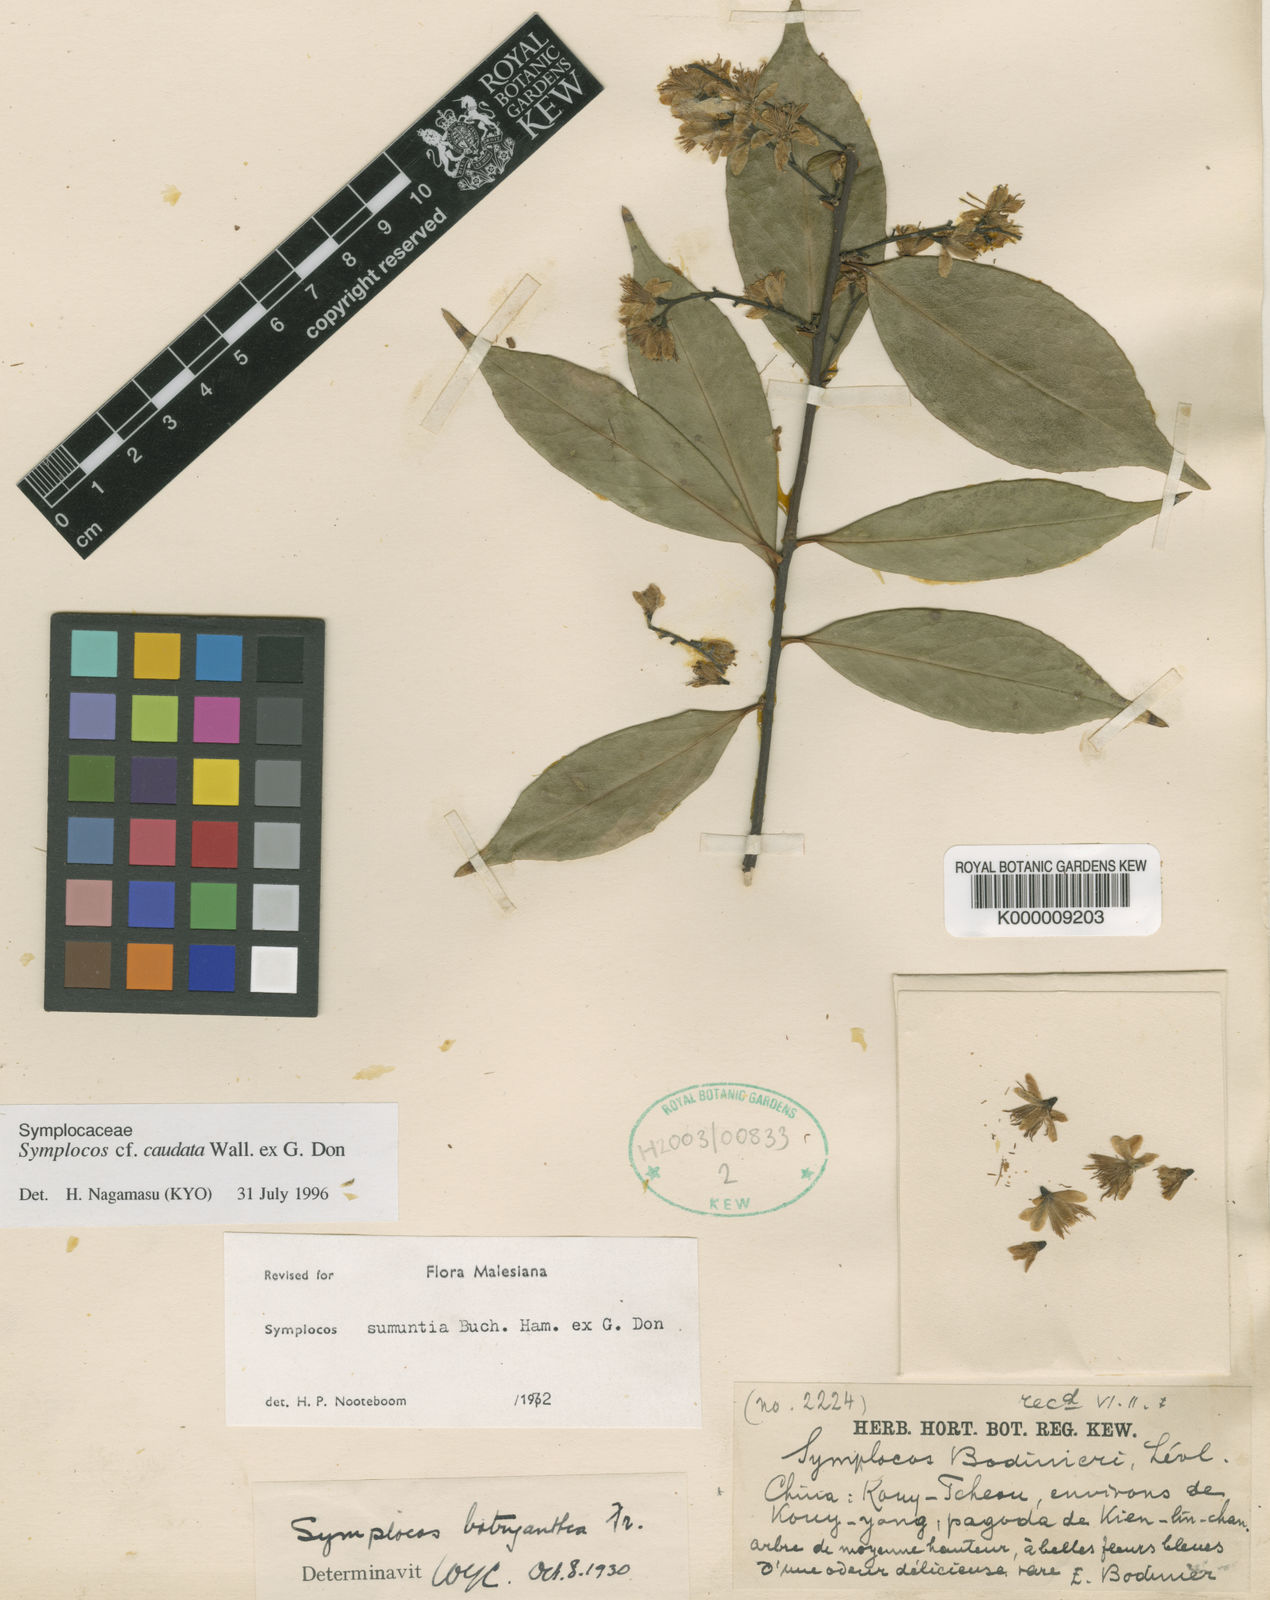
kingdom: Plantae
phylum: Tracheophyta
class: Magnoliopsida
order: Ericales
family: Symplocaceae
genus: Symplocos
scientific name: Symplocos sumuntia
